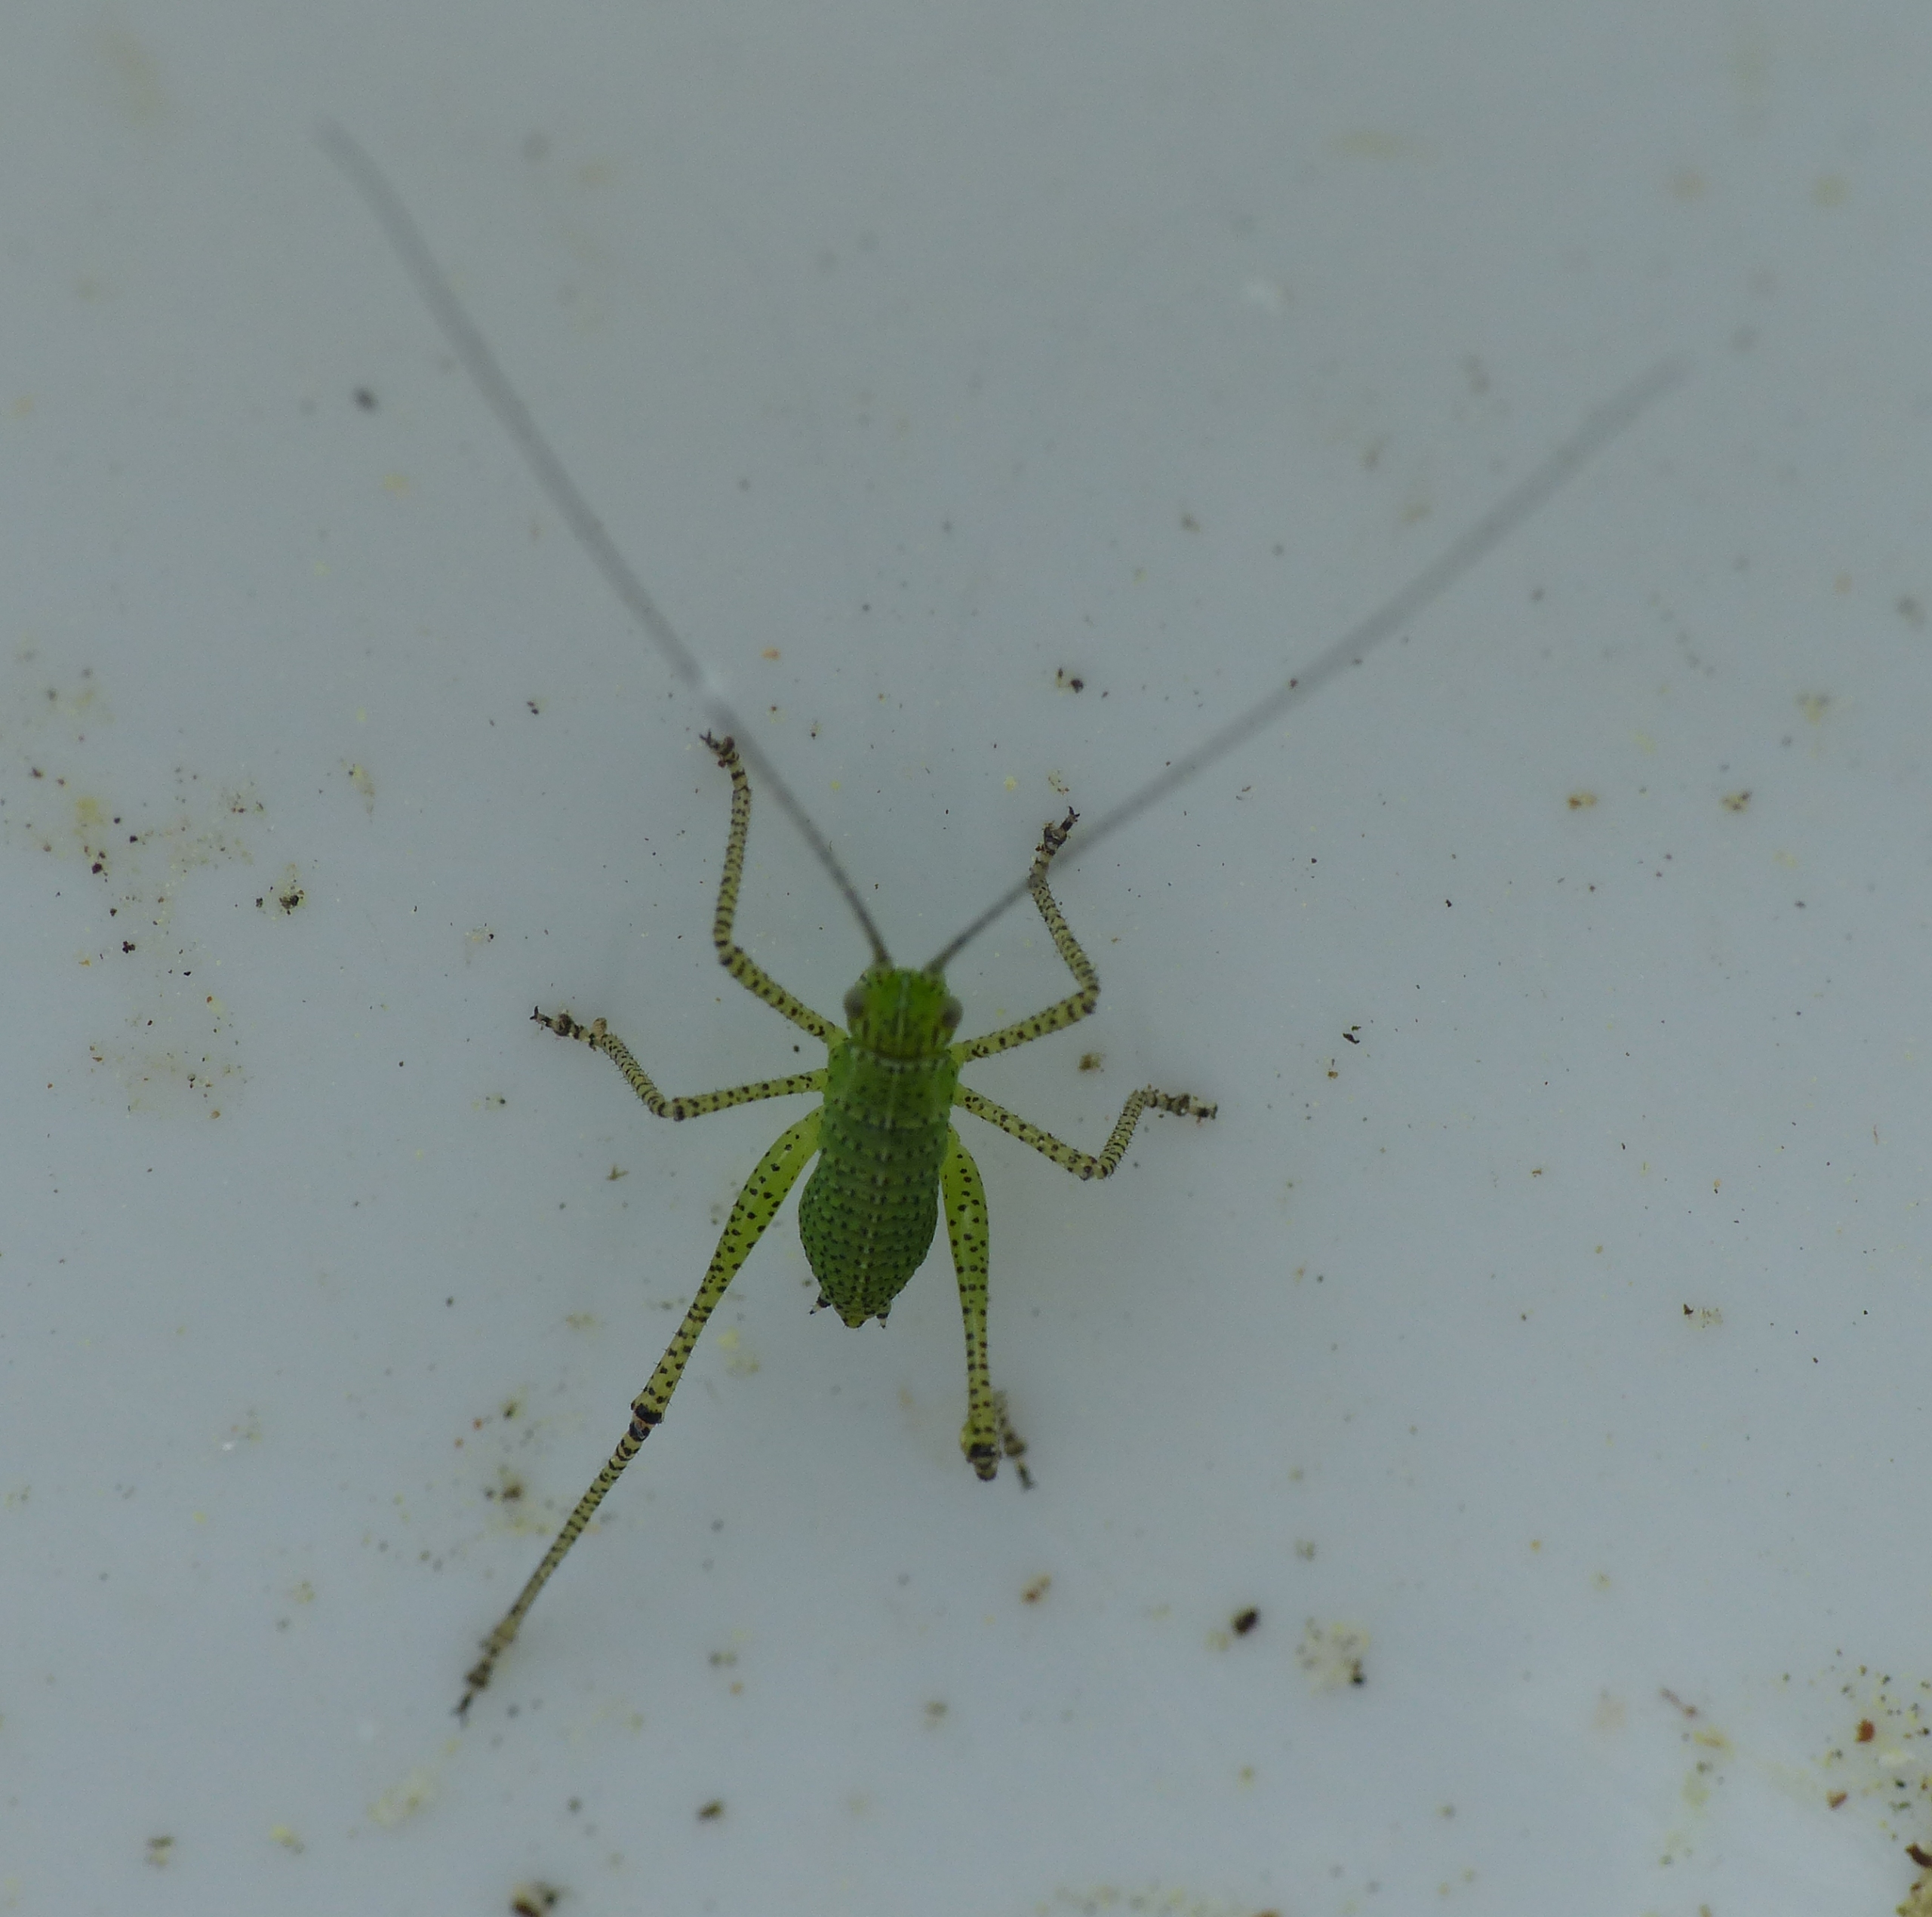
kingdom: Animalia
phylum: Arthropoda
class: Insecta
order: Orthoptera
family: Tettigoniidae
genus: Leptophyes
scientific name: Leptophyes punctatissima
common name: Krumknivgræshoppe
